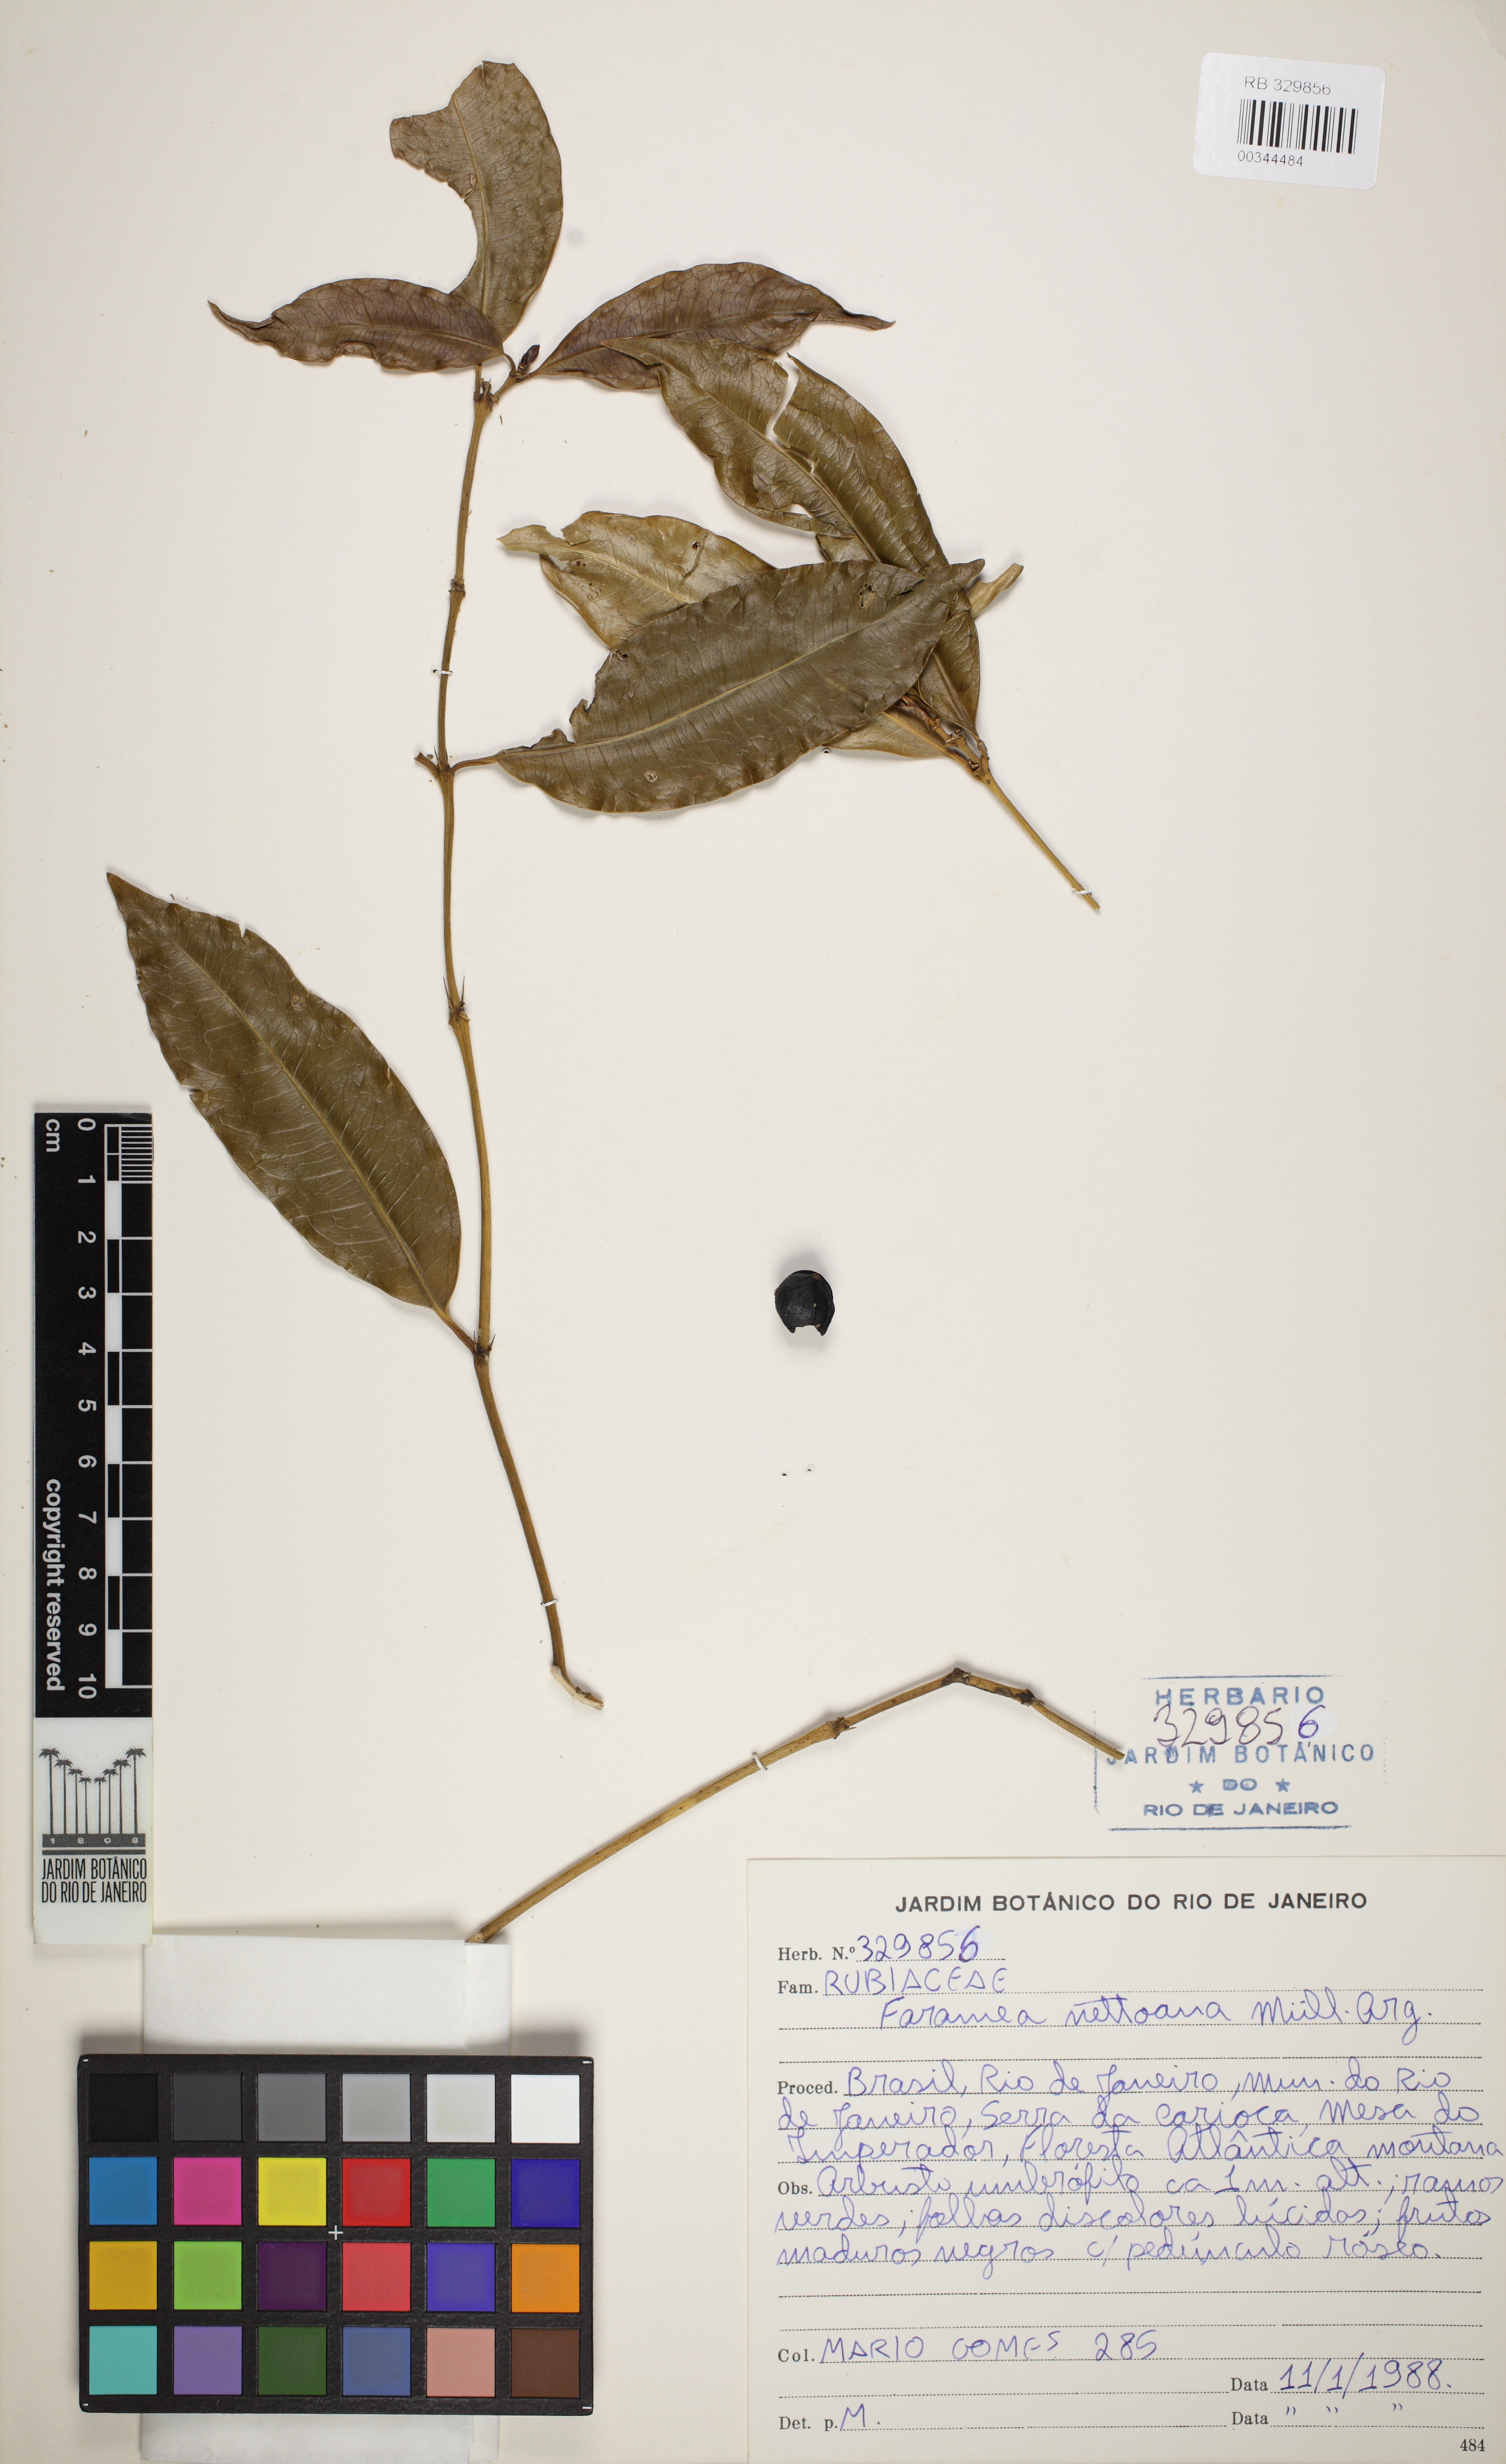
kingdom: Plantae
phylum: Tracheophyta
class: Magnoliopsida
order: Gentianales
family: Rubiaceae
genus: Faramea
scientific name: Faramea heterophylla
